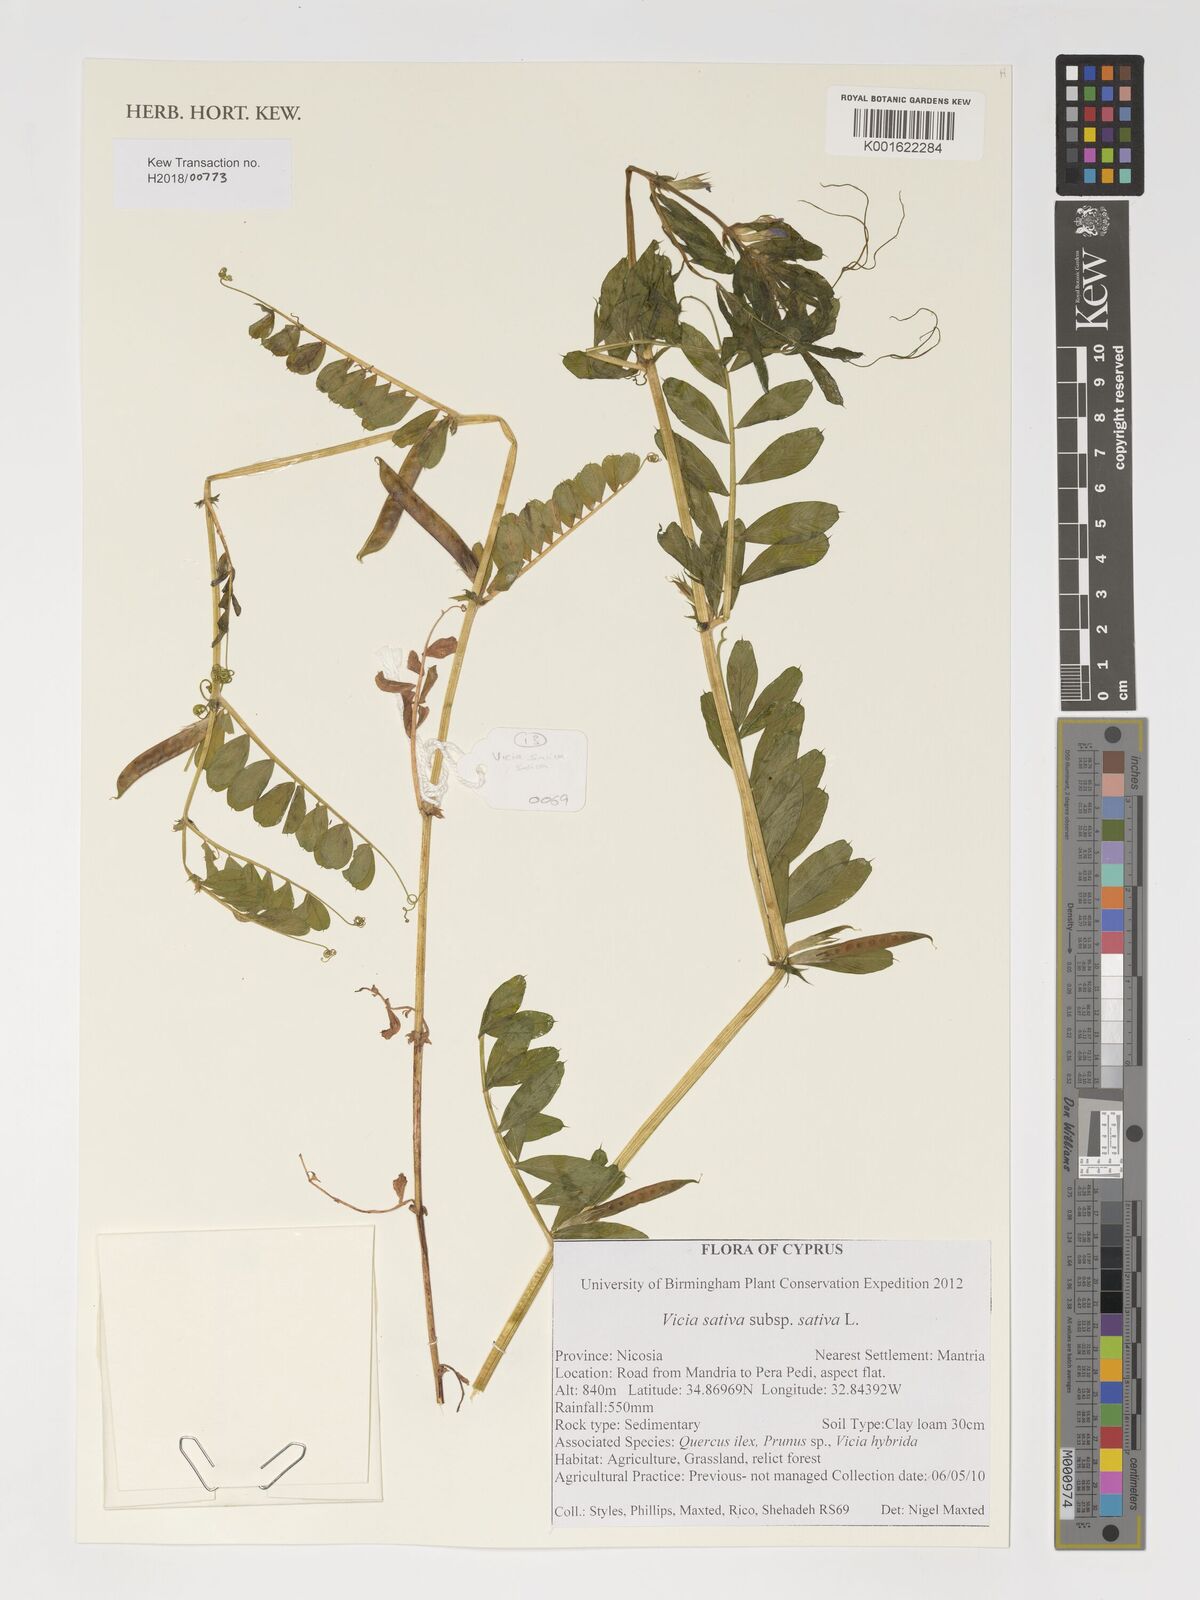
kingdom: Plantae
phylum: Tracheophyta
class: Magnoliopsida
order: Fabales
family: Fabaceae
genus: Vicia
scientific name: Vicia sativa
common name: Garden vetch
